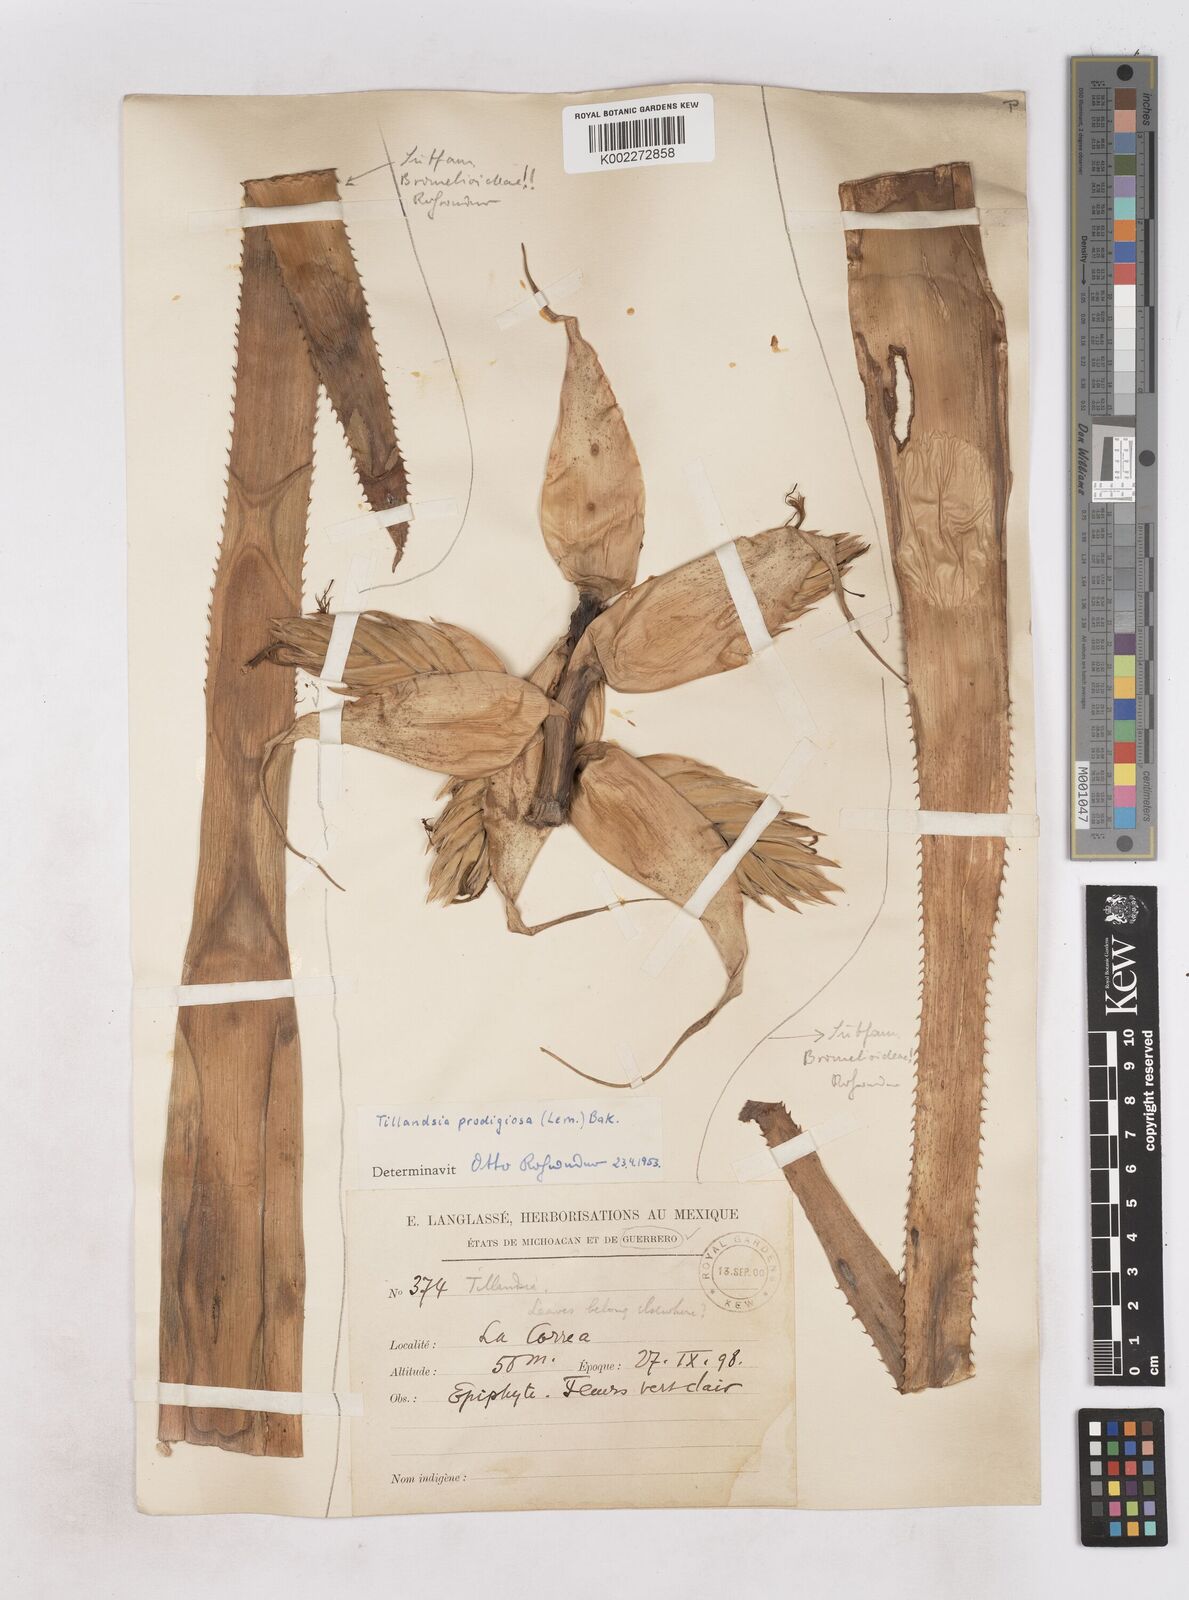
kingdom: Plantae
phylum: Tracheophyta
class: Liliopsida
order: Poales
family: Bromeliaceae
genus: Tillandsia
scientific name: Tillandsia prodigiosa
